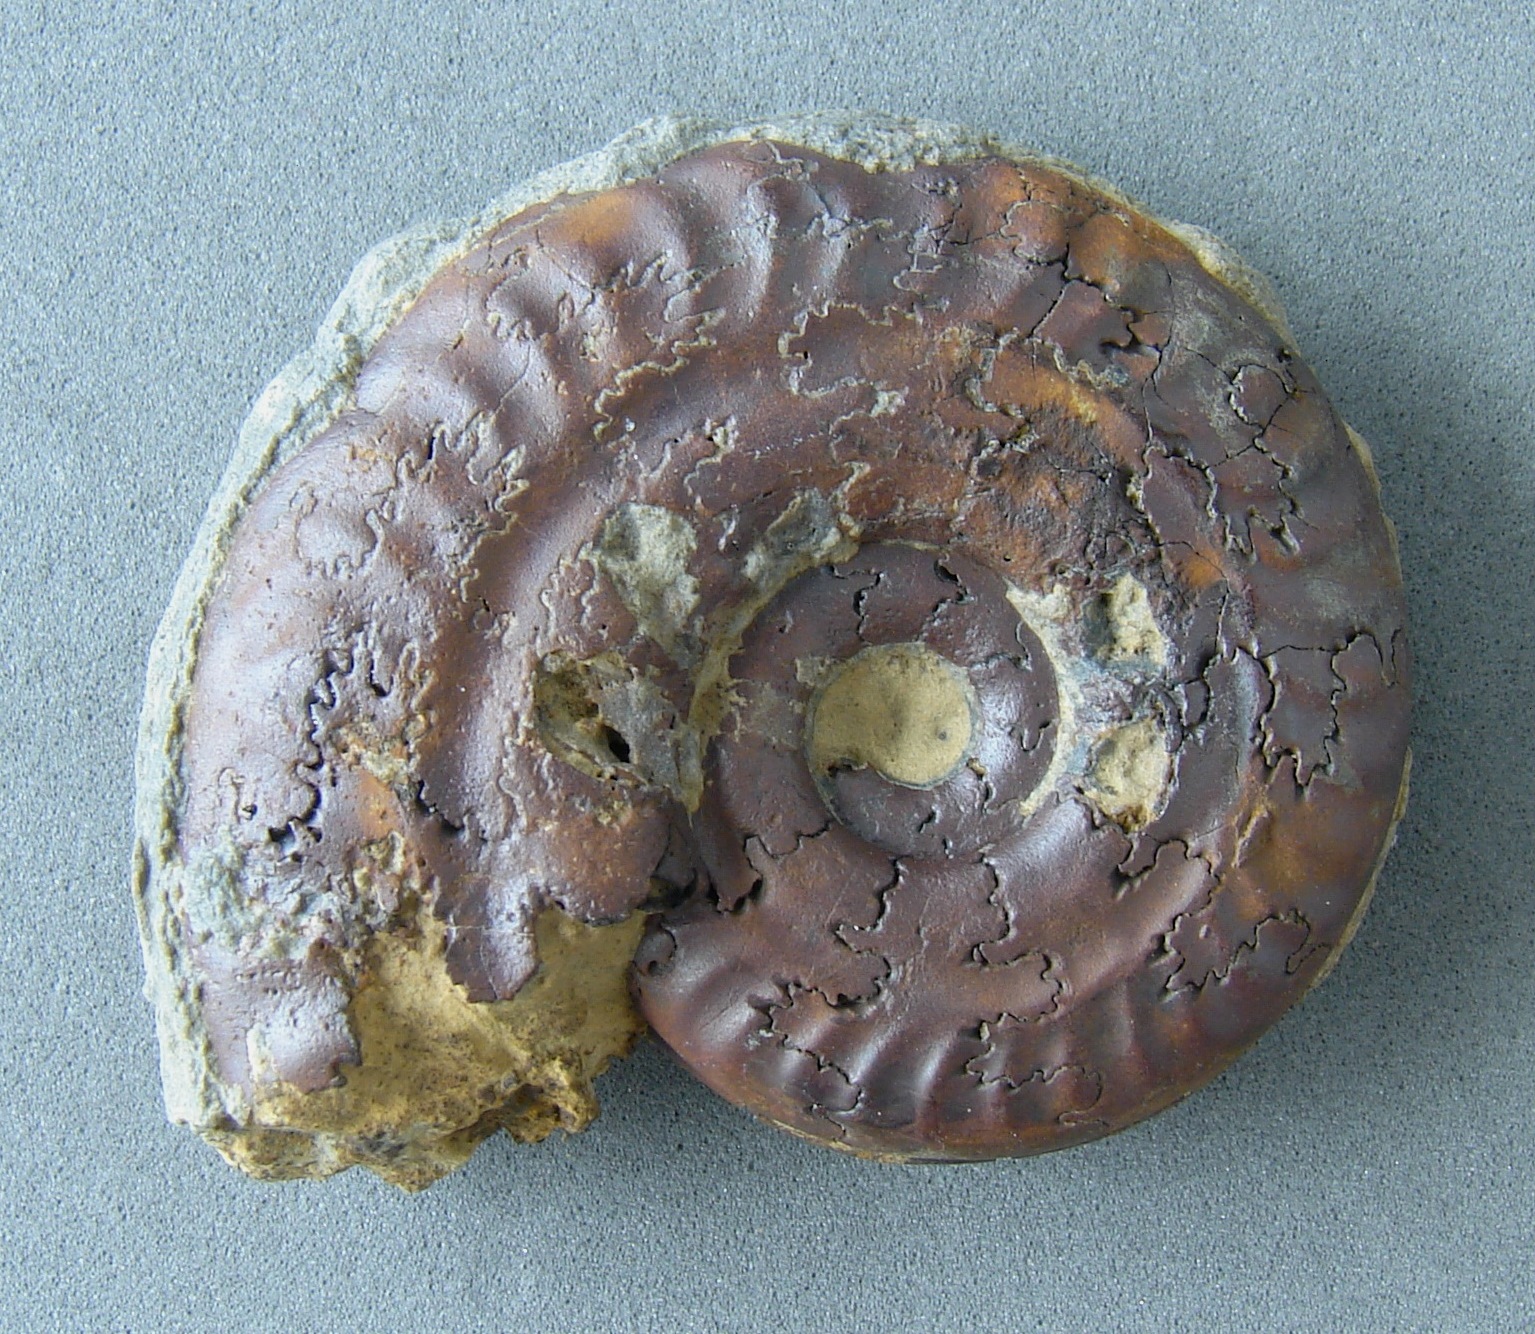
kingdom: Animalia
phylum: Mollusca
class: Cephalopoda
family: Hildoceratidae
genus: Hildoceras
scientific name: Hildoceras bifrons
